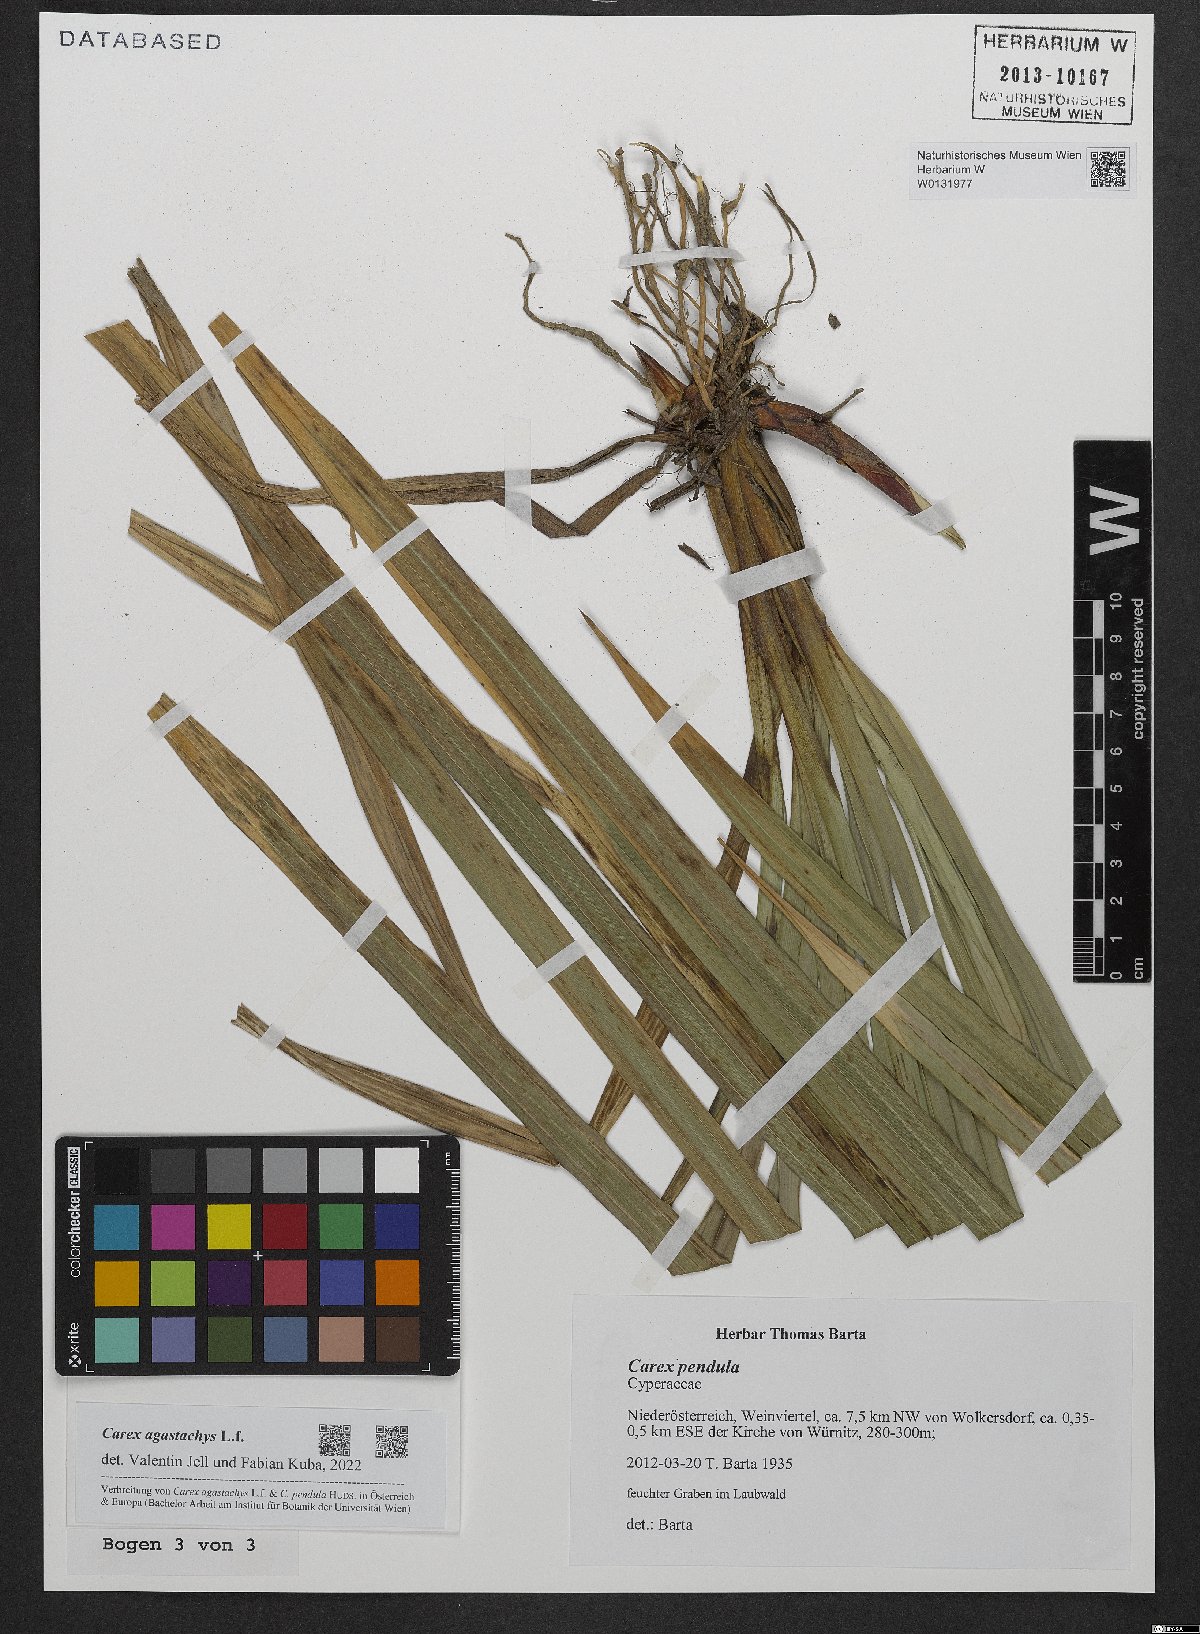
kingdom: Plantae
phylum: Tracheophyta
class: Liliopsida
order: Poales
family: Cyperaceae
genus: Carex
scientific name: Carex agastachys
